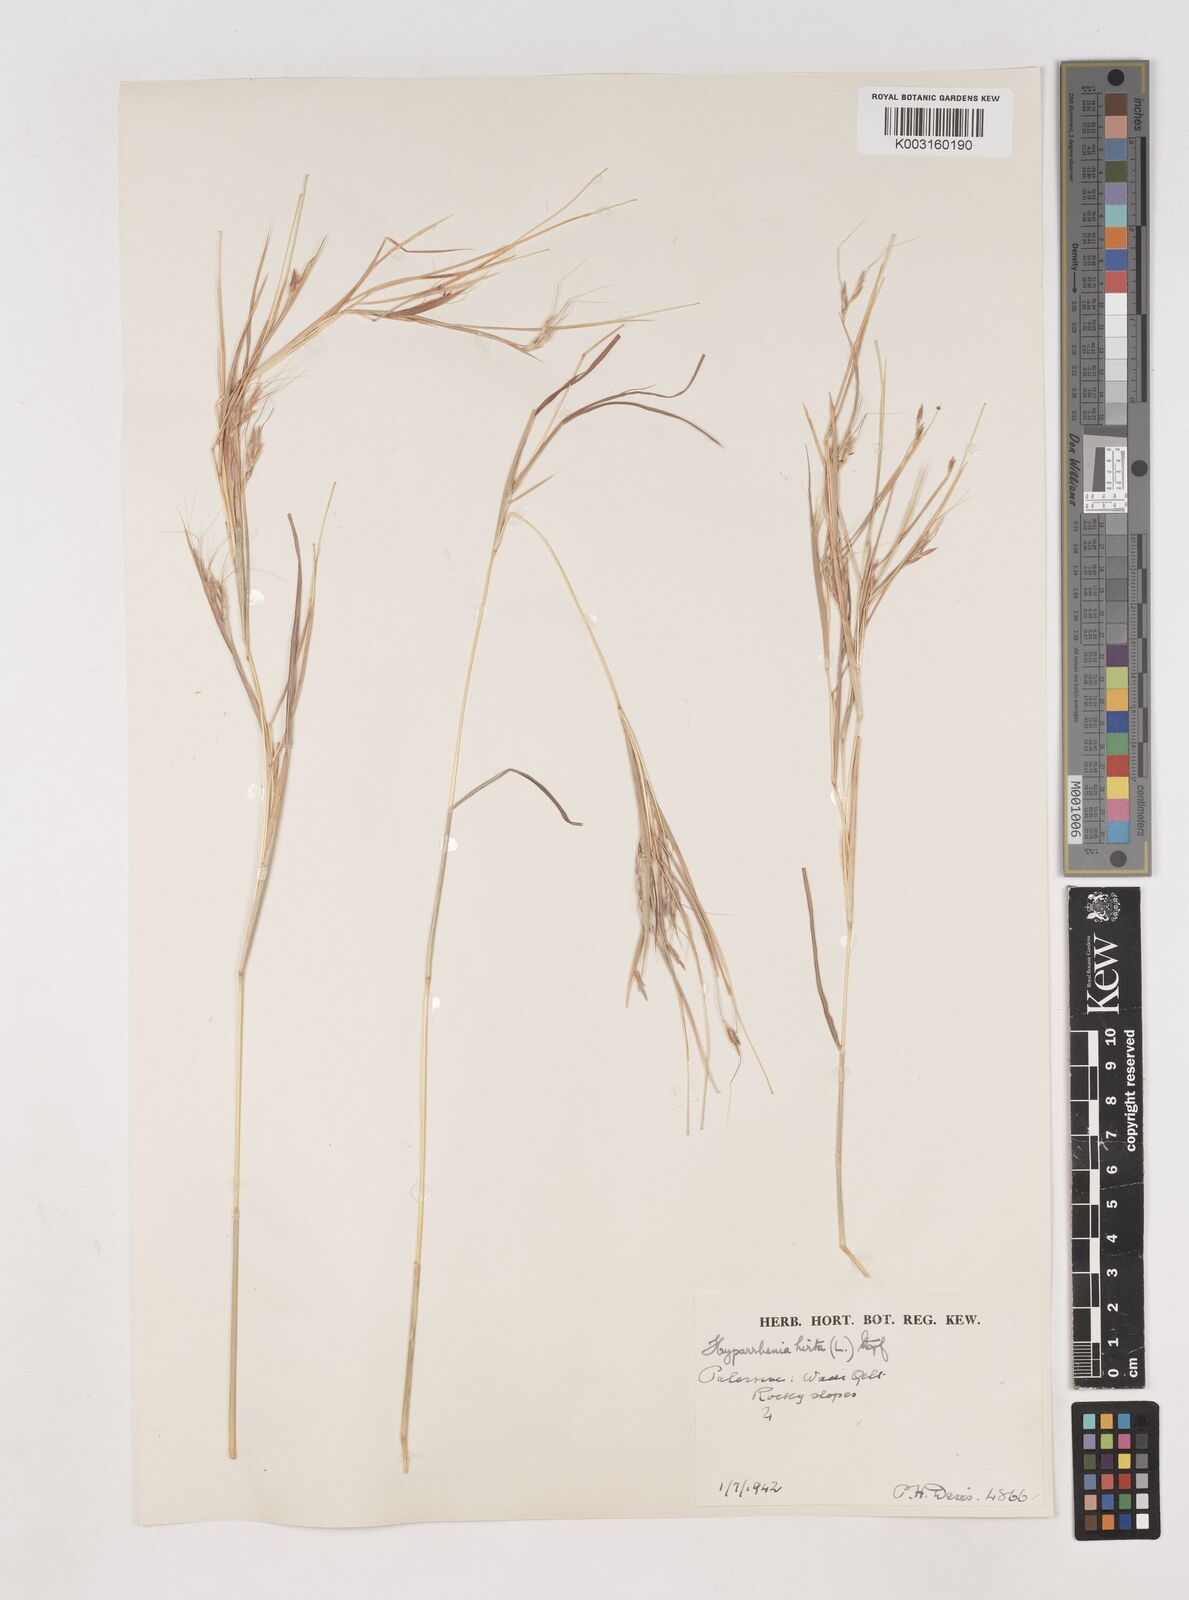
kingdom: Plantae
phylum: Tracheophyta
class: Liliopsida
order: Poales
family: Poaceae
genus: Hyparrhenia
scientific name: Hyparrhenia hirta
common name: Thatching grass
